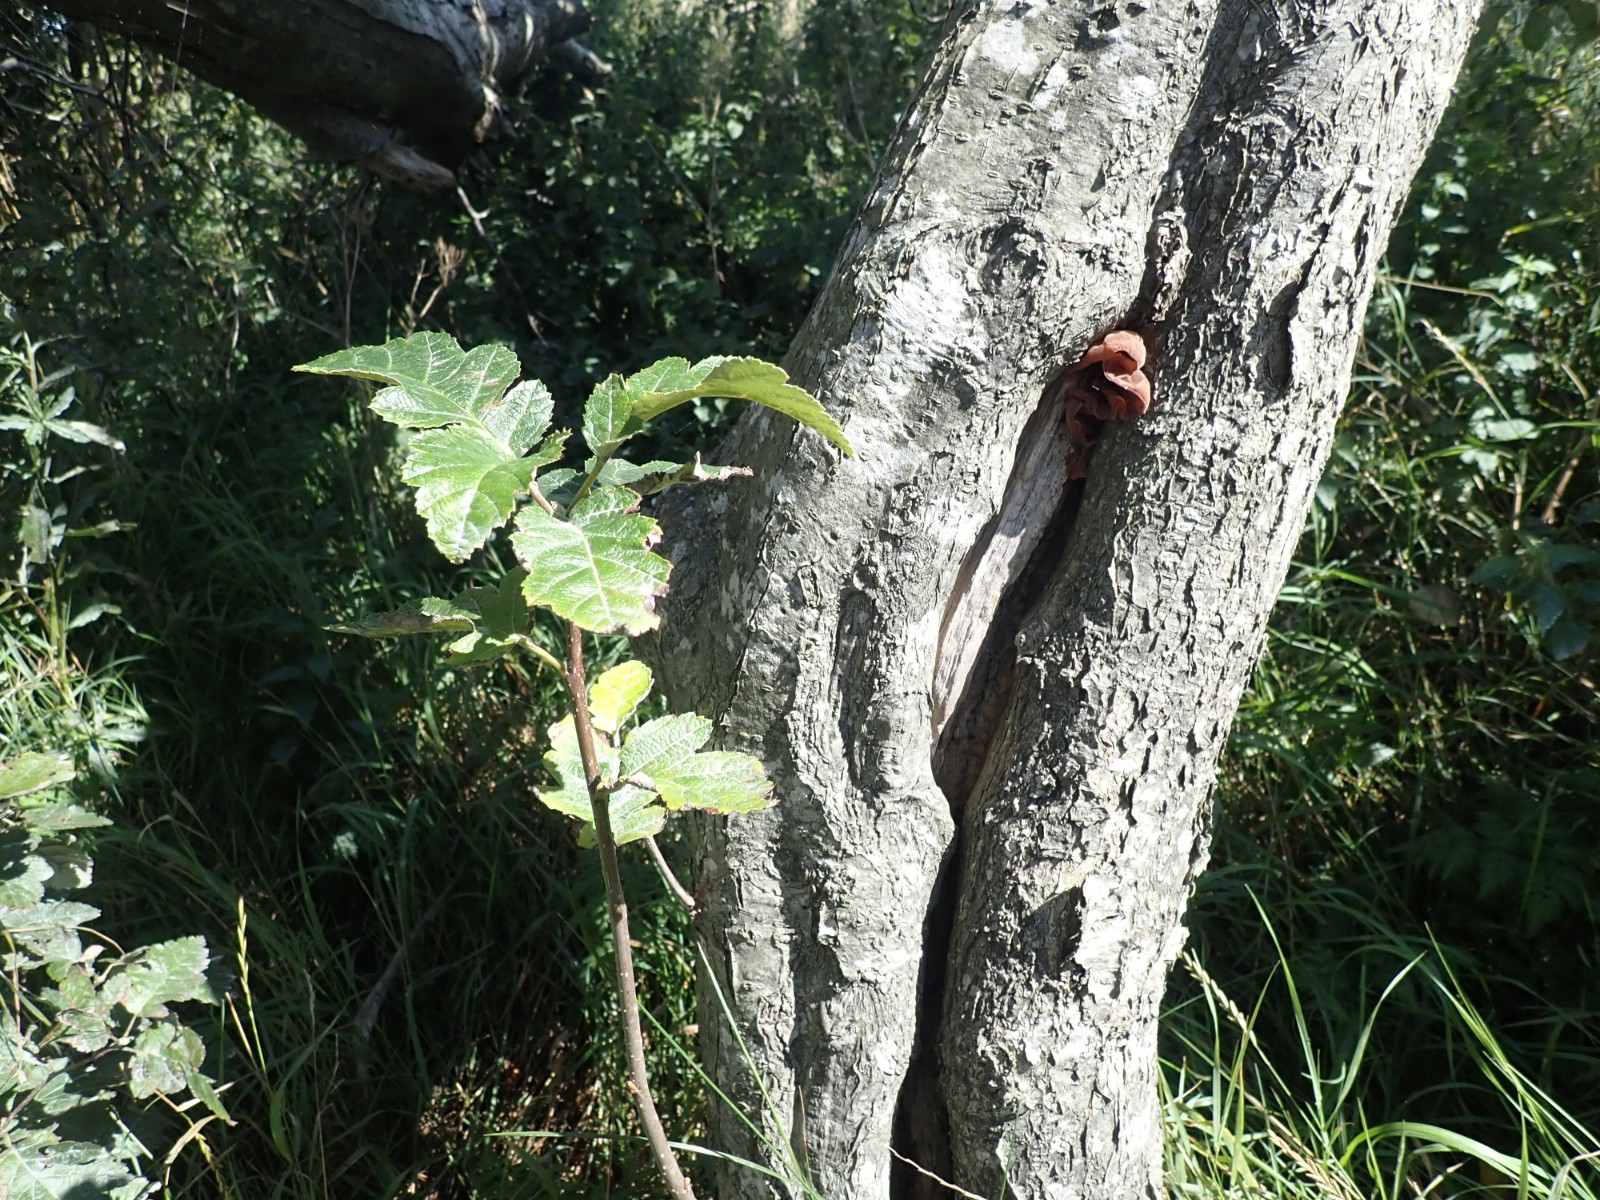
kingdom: Fungi
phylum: Basidiomycota
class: Agaricomycetes
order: Auriculariales
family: Auriculariaceae
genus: Auricularia
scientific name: Auricularia auricula-judae
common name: almindelig judasøre
